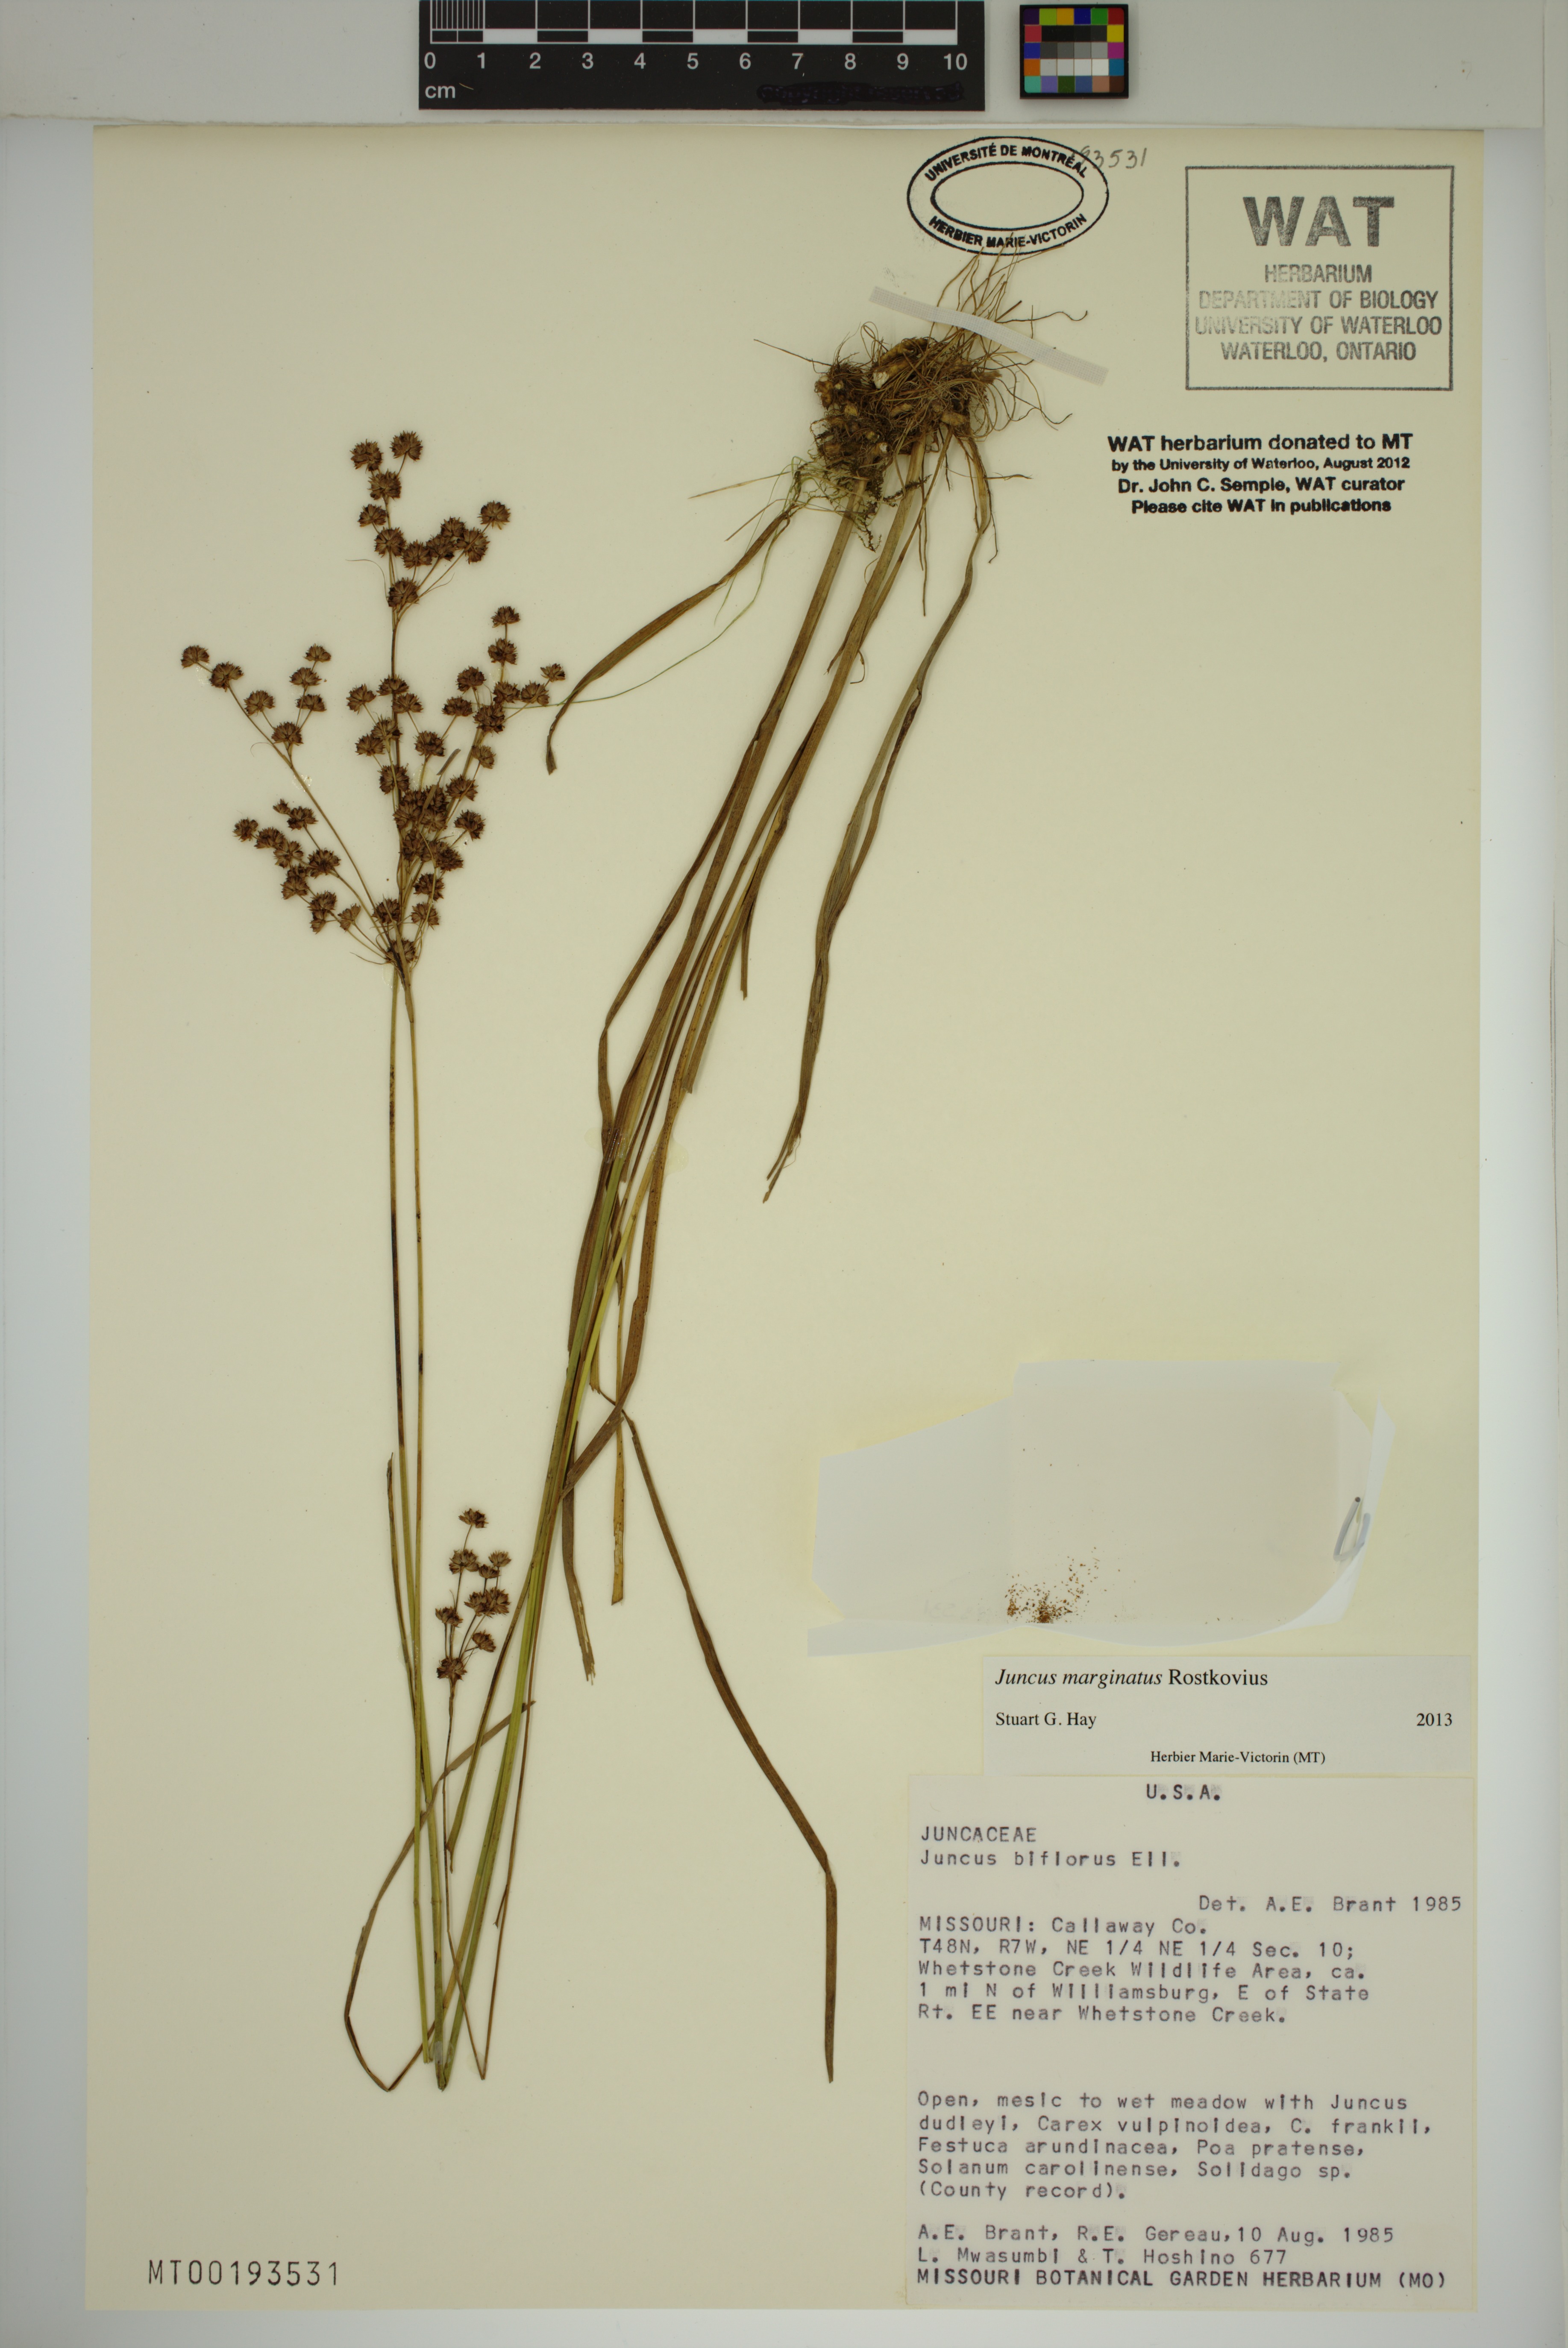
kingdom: Plantae
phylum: Tracheophyta
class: Liliopsida
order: Poales
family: Juncaceae
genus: Juncus
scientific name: Juncus marginatus
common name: Grass-leaf rush
